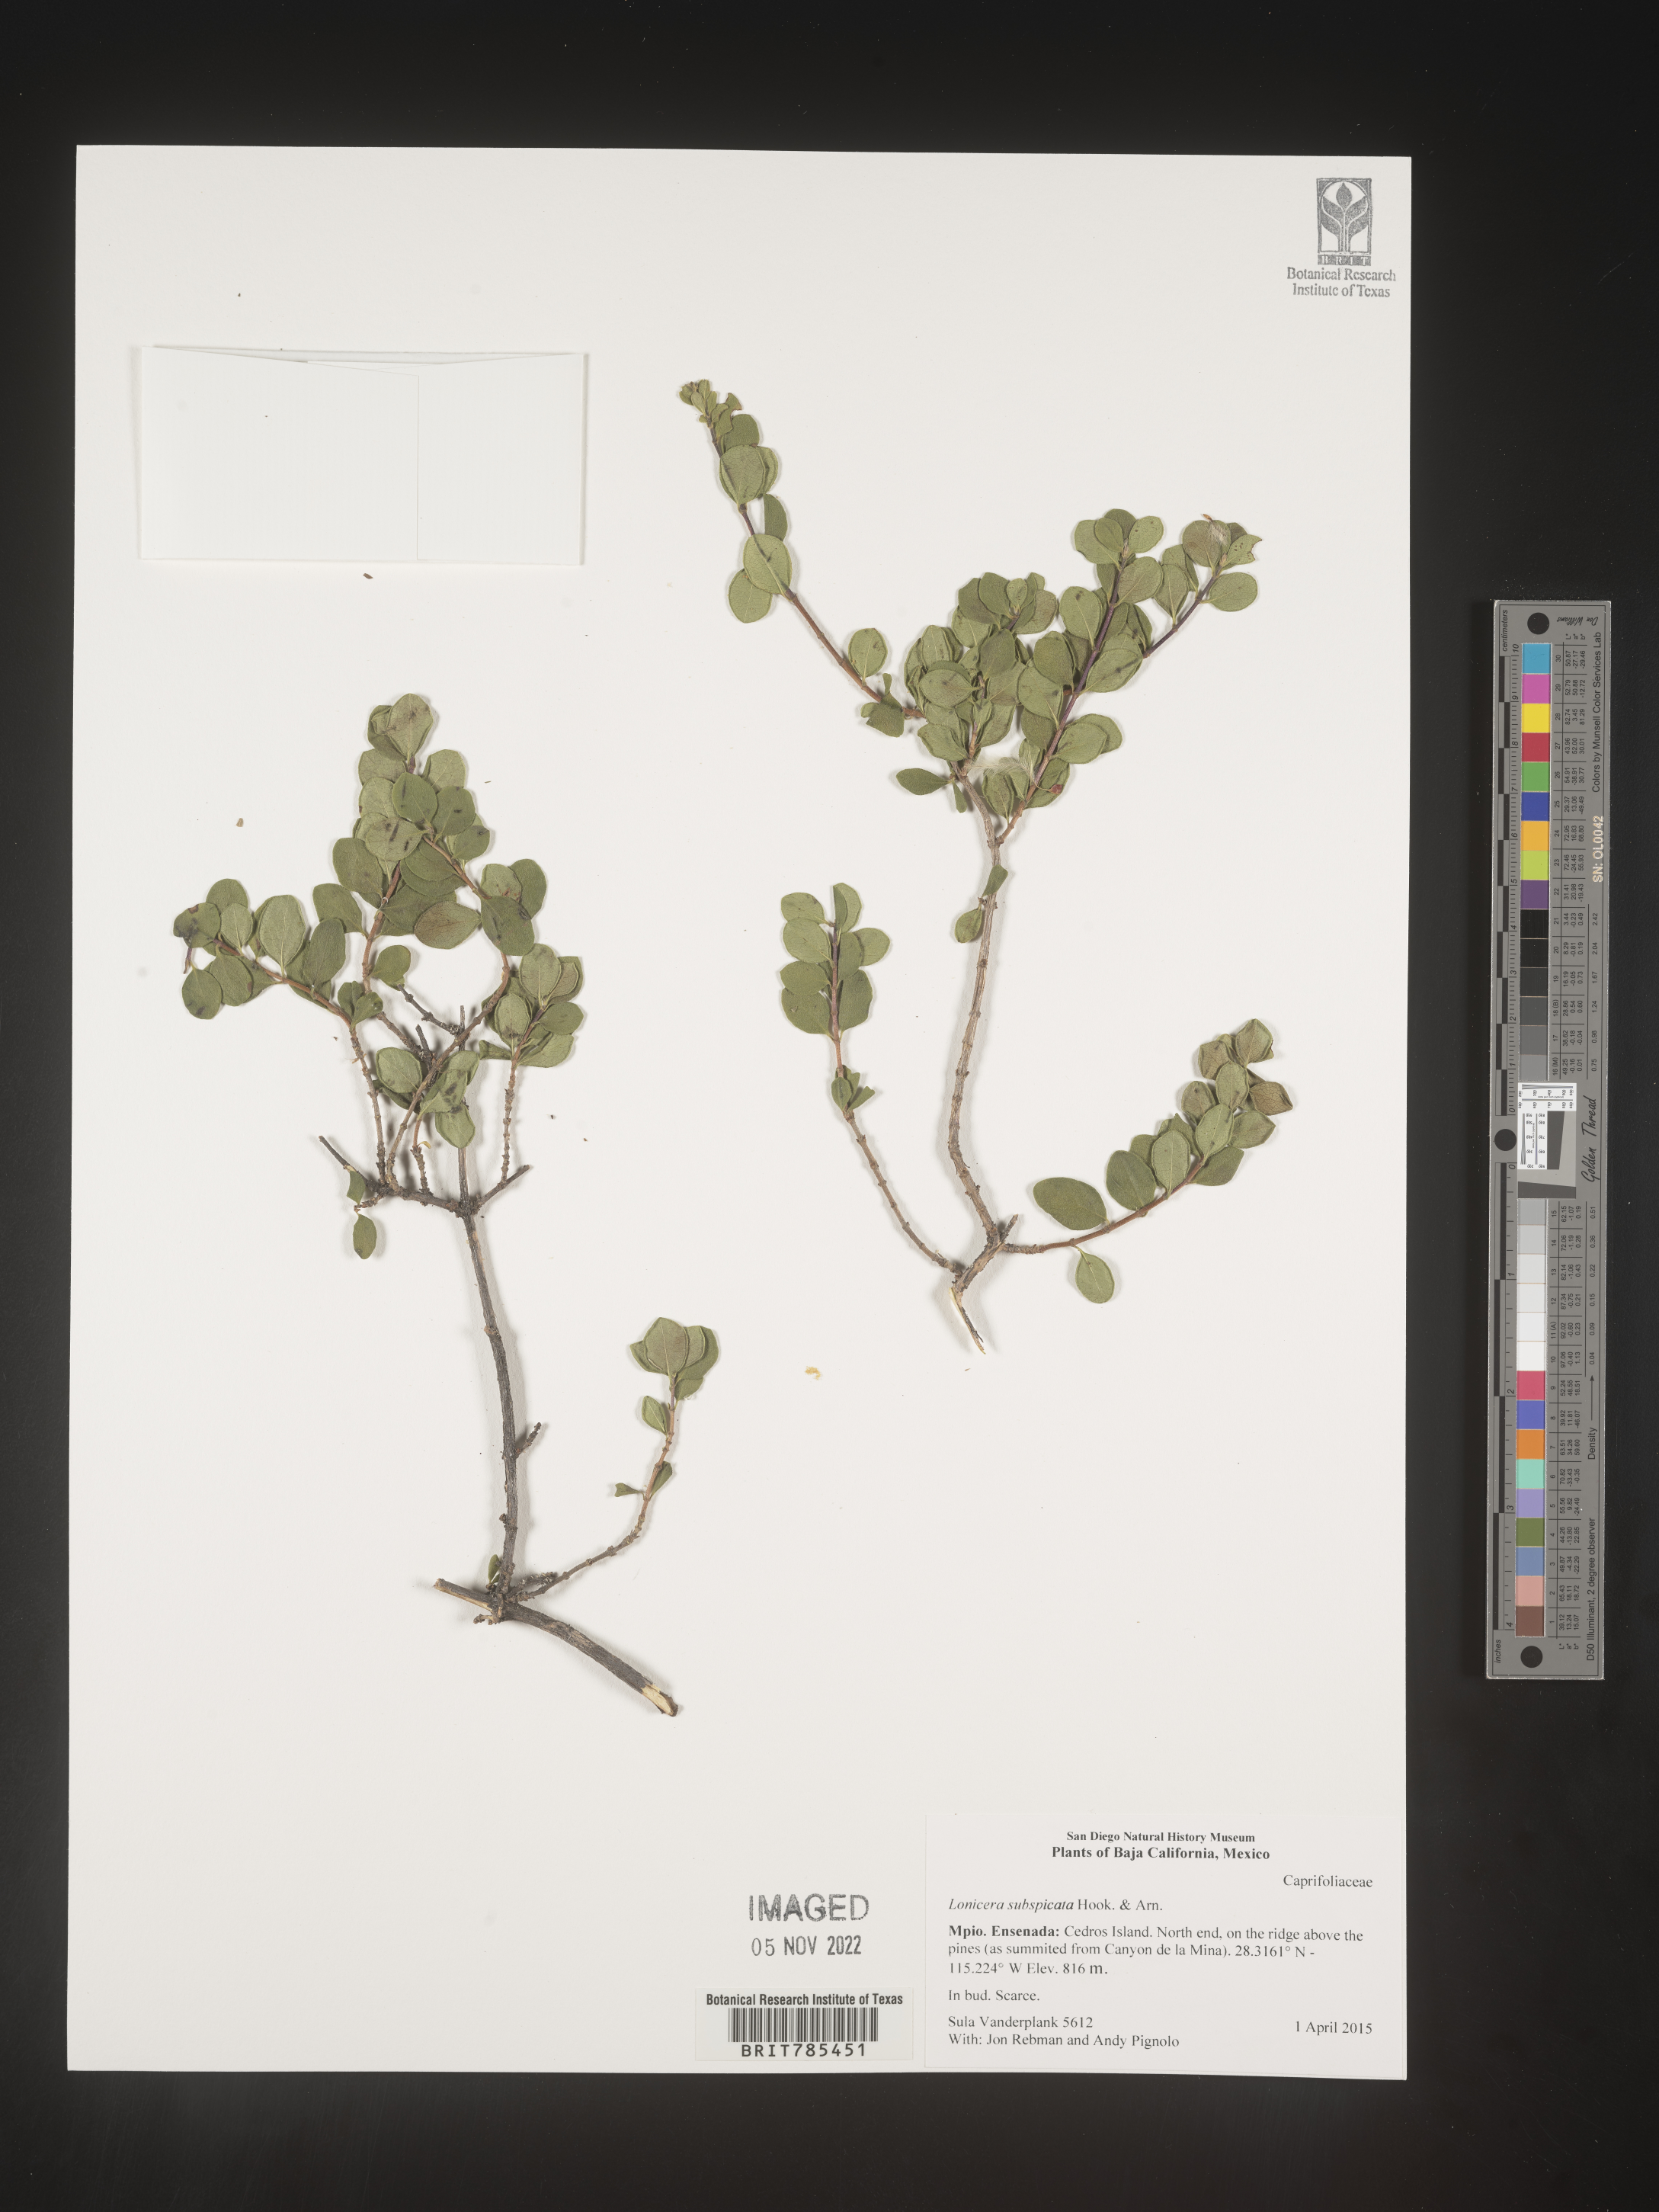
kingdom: Plantae
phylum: Tracheophyta
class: Magnoliopsida
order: Dipsacales
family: Caprifoliaceae
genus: Lonicera
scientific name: Lonicera
